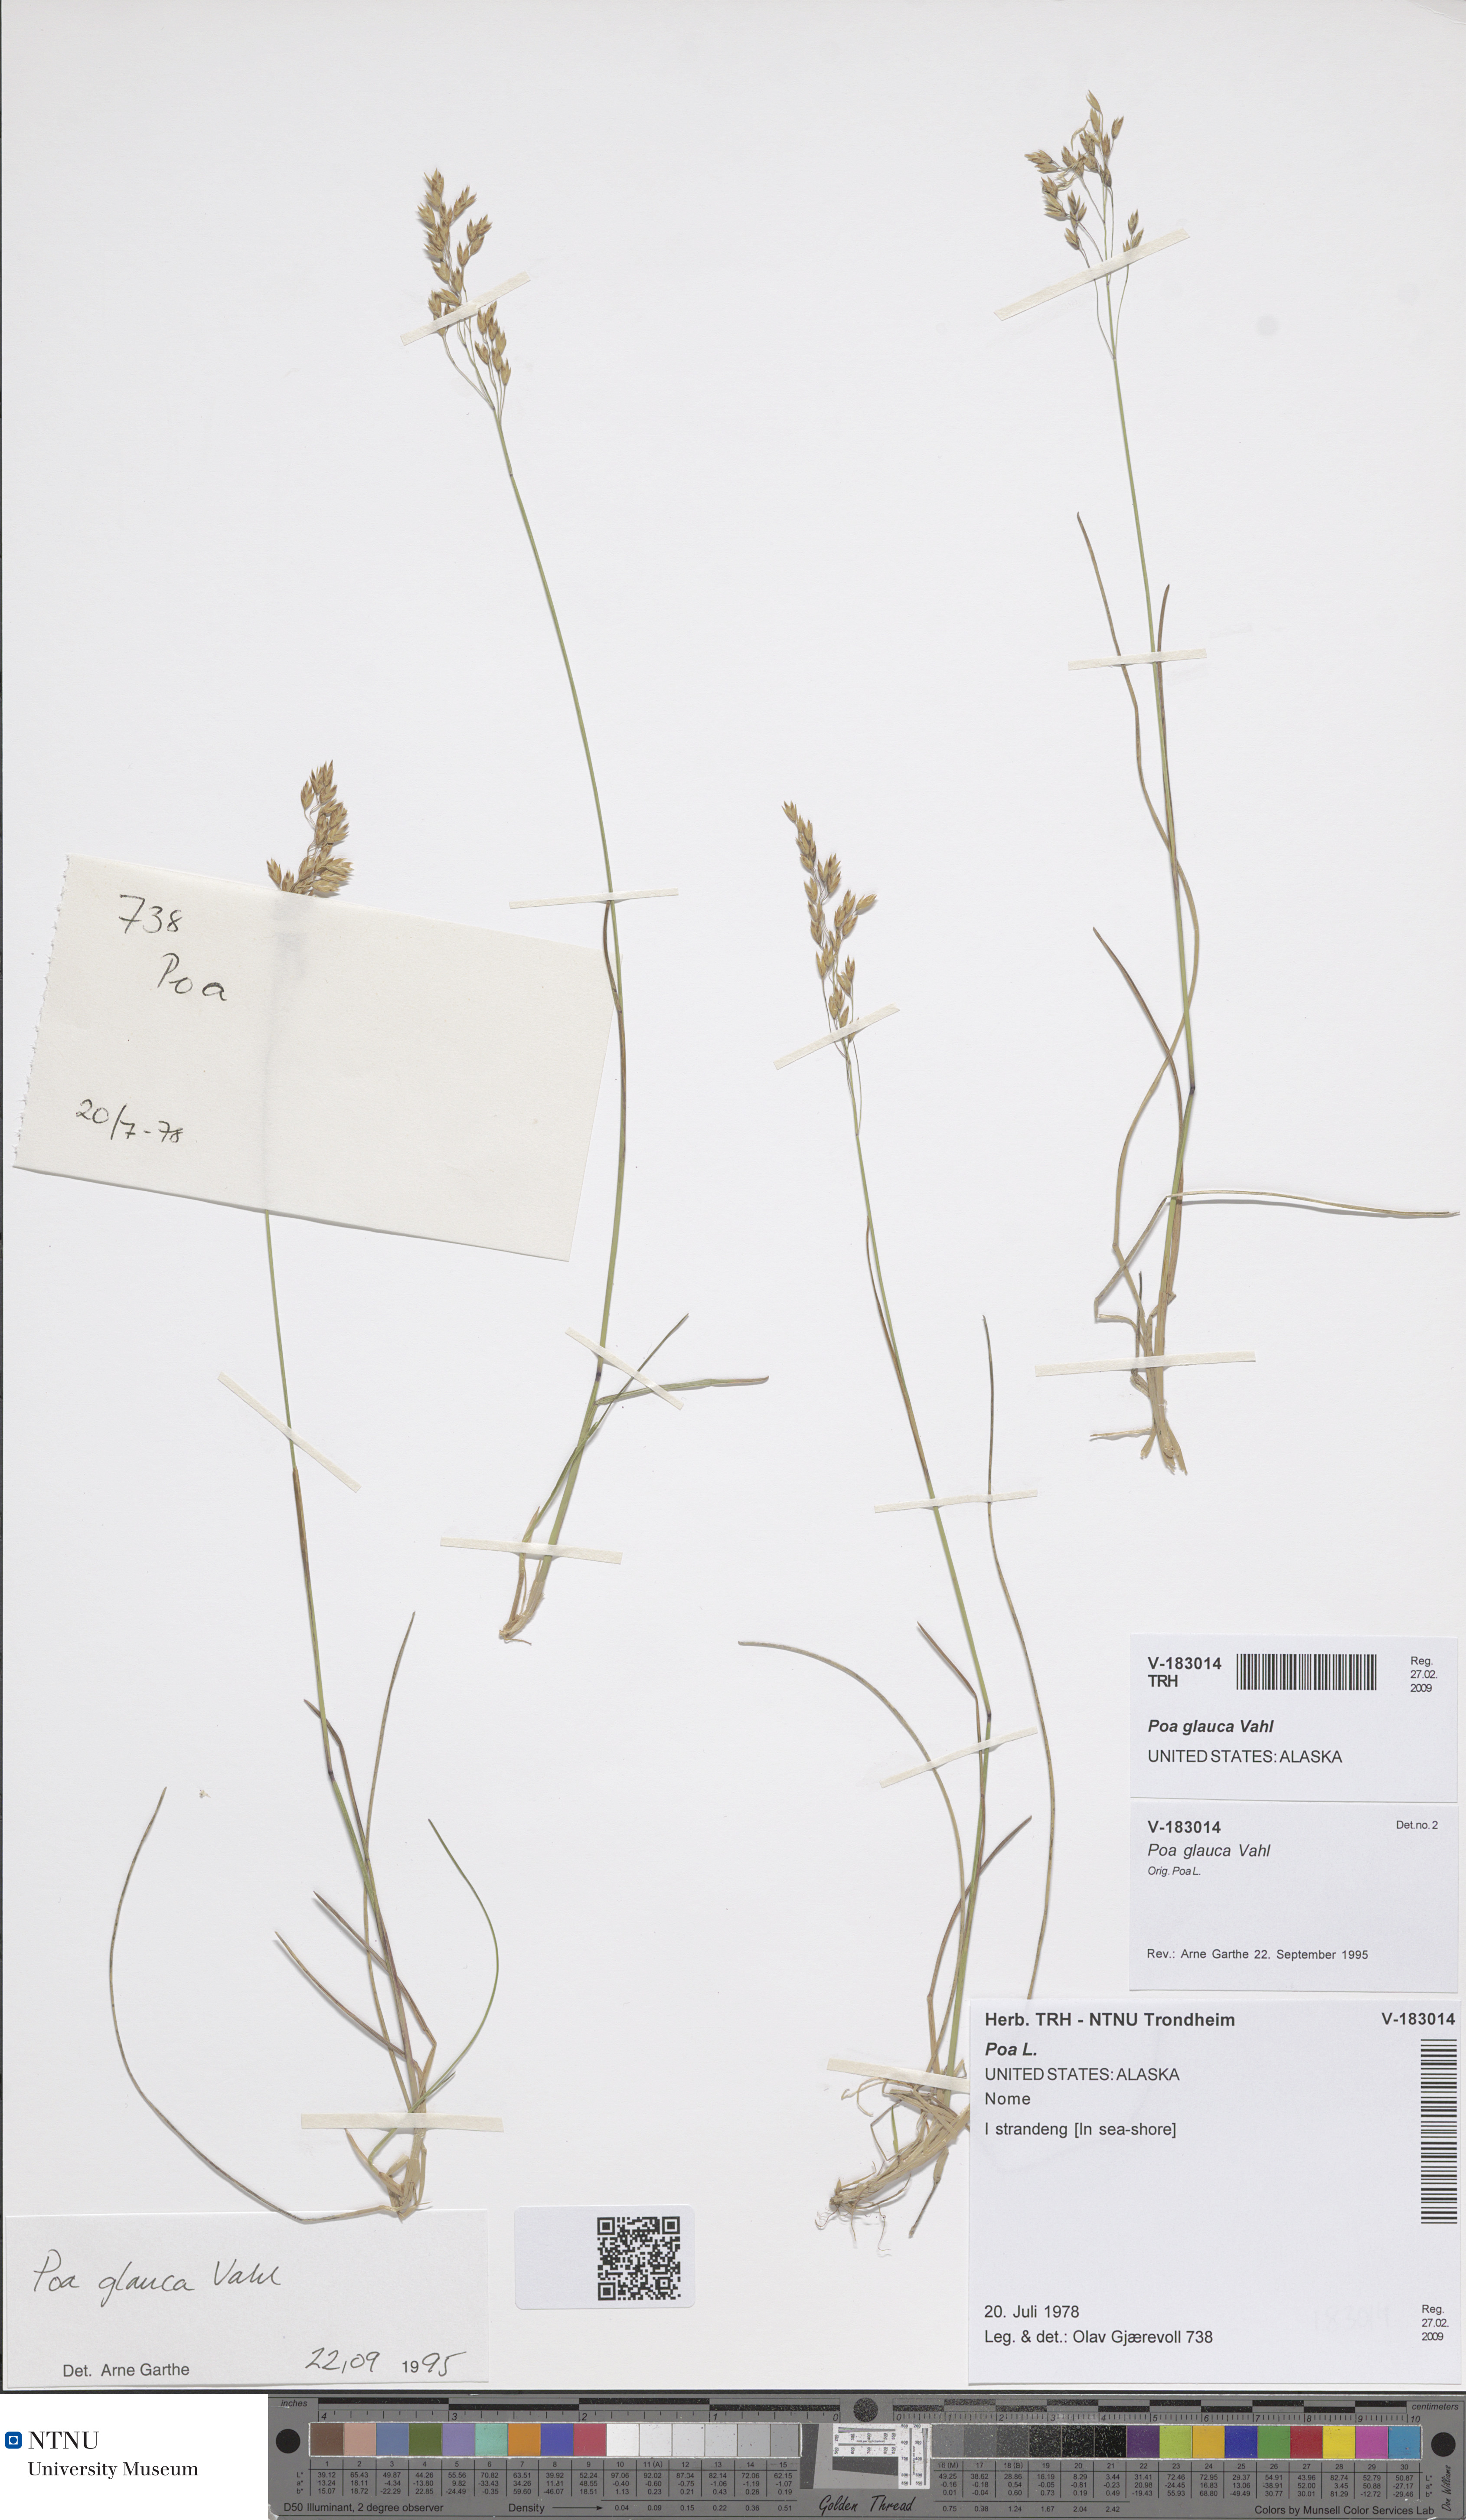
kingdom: Plantae
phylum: Tracheophyta
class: Liliopsida
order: Poales
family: Poaceae
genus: Poa
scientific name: Poa glauca
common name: Glaucous bluegrass
